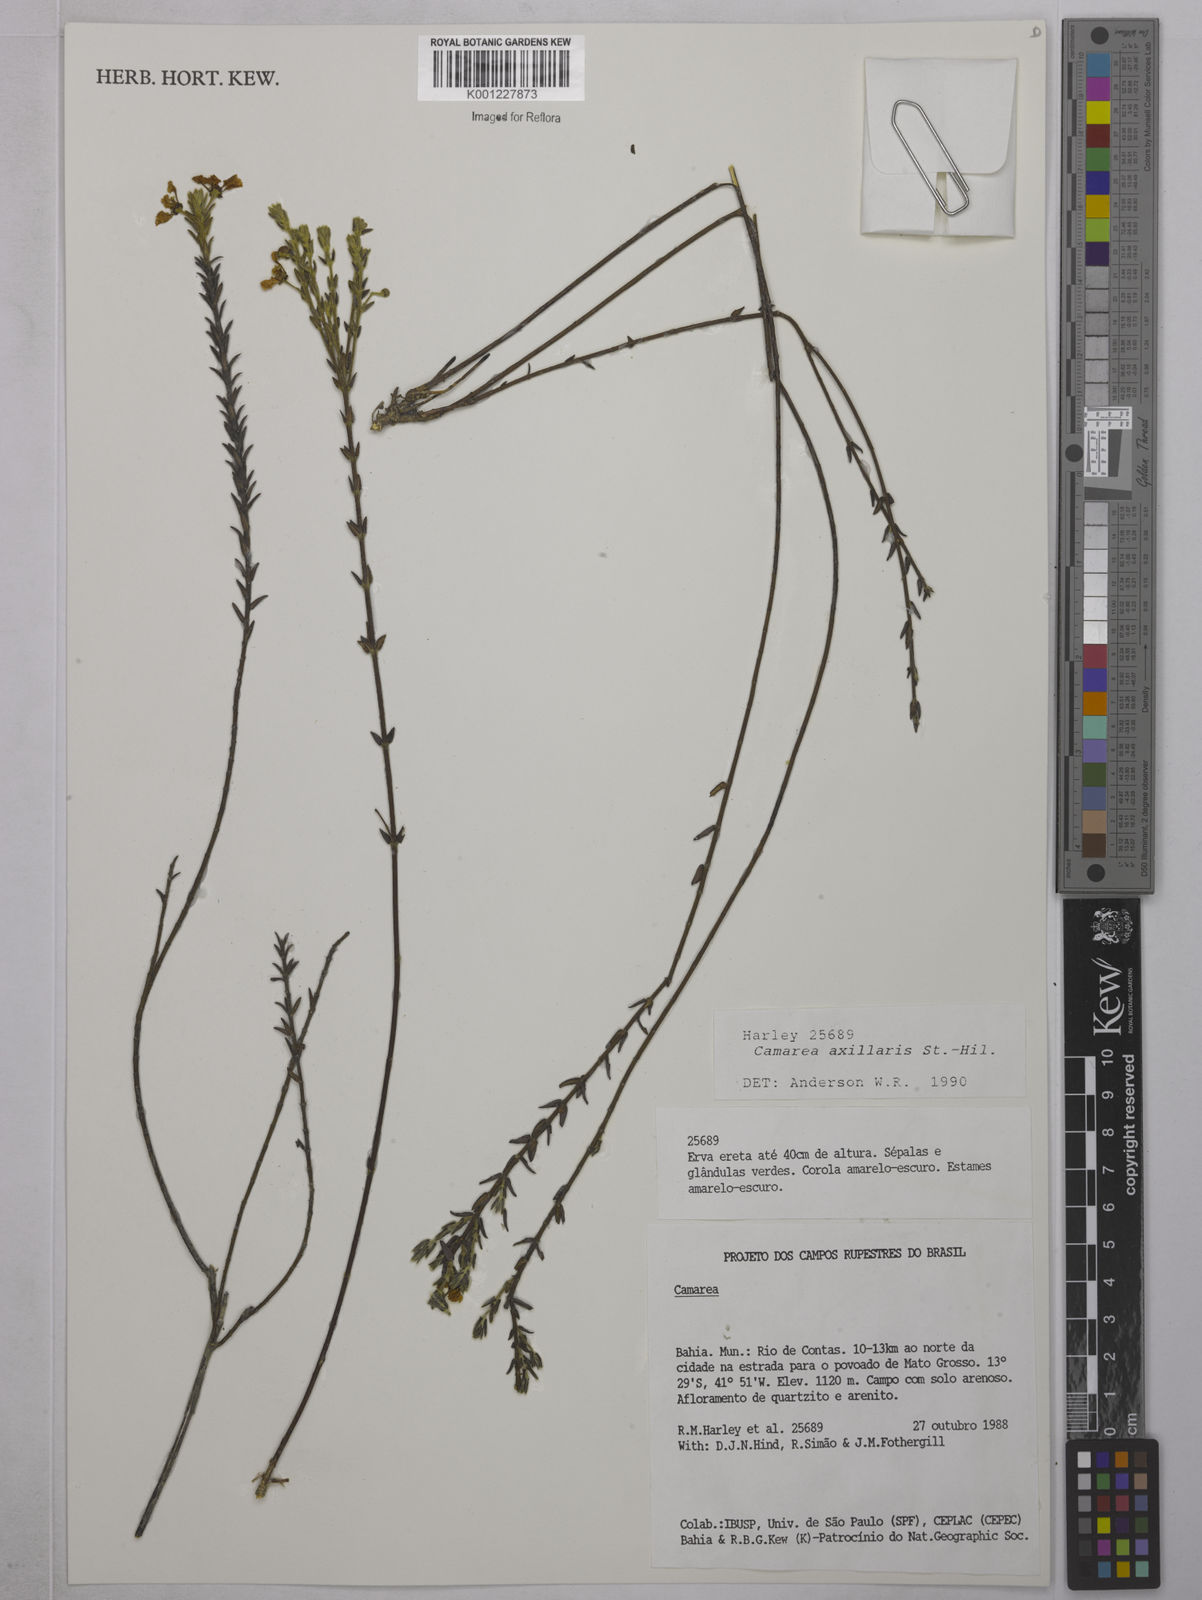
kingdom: Plantae
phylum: Tracheophyta
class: Magnoliopsida
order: Malpighiales
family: Malpighiaceae
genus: Camarea
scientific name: Camarea axillaris
